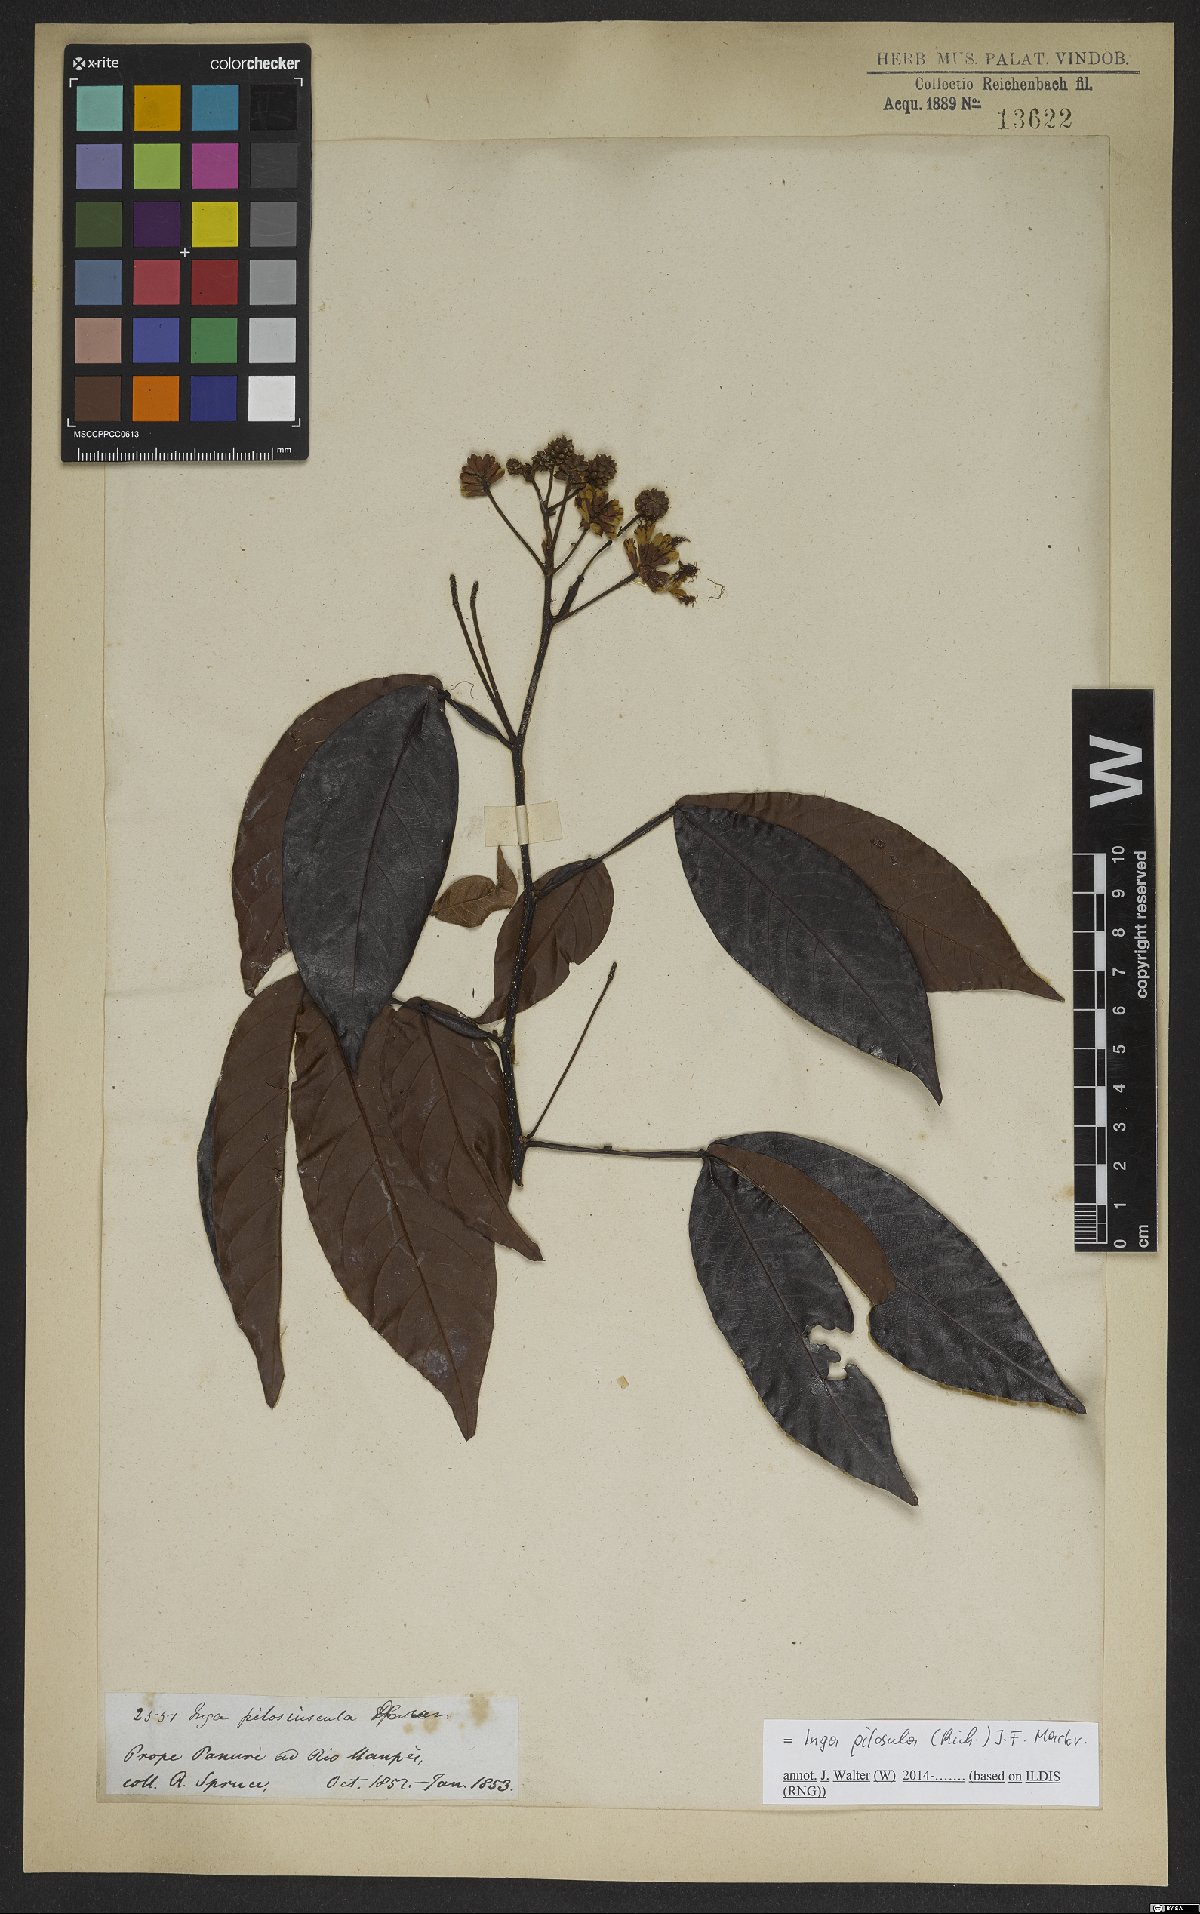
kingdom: Plantae
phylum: Tracheophyta
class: Magnoliopsida
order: Fabales
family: Fabaceae
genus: Inga
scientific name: Inga pilosula
